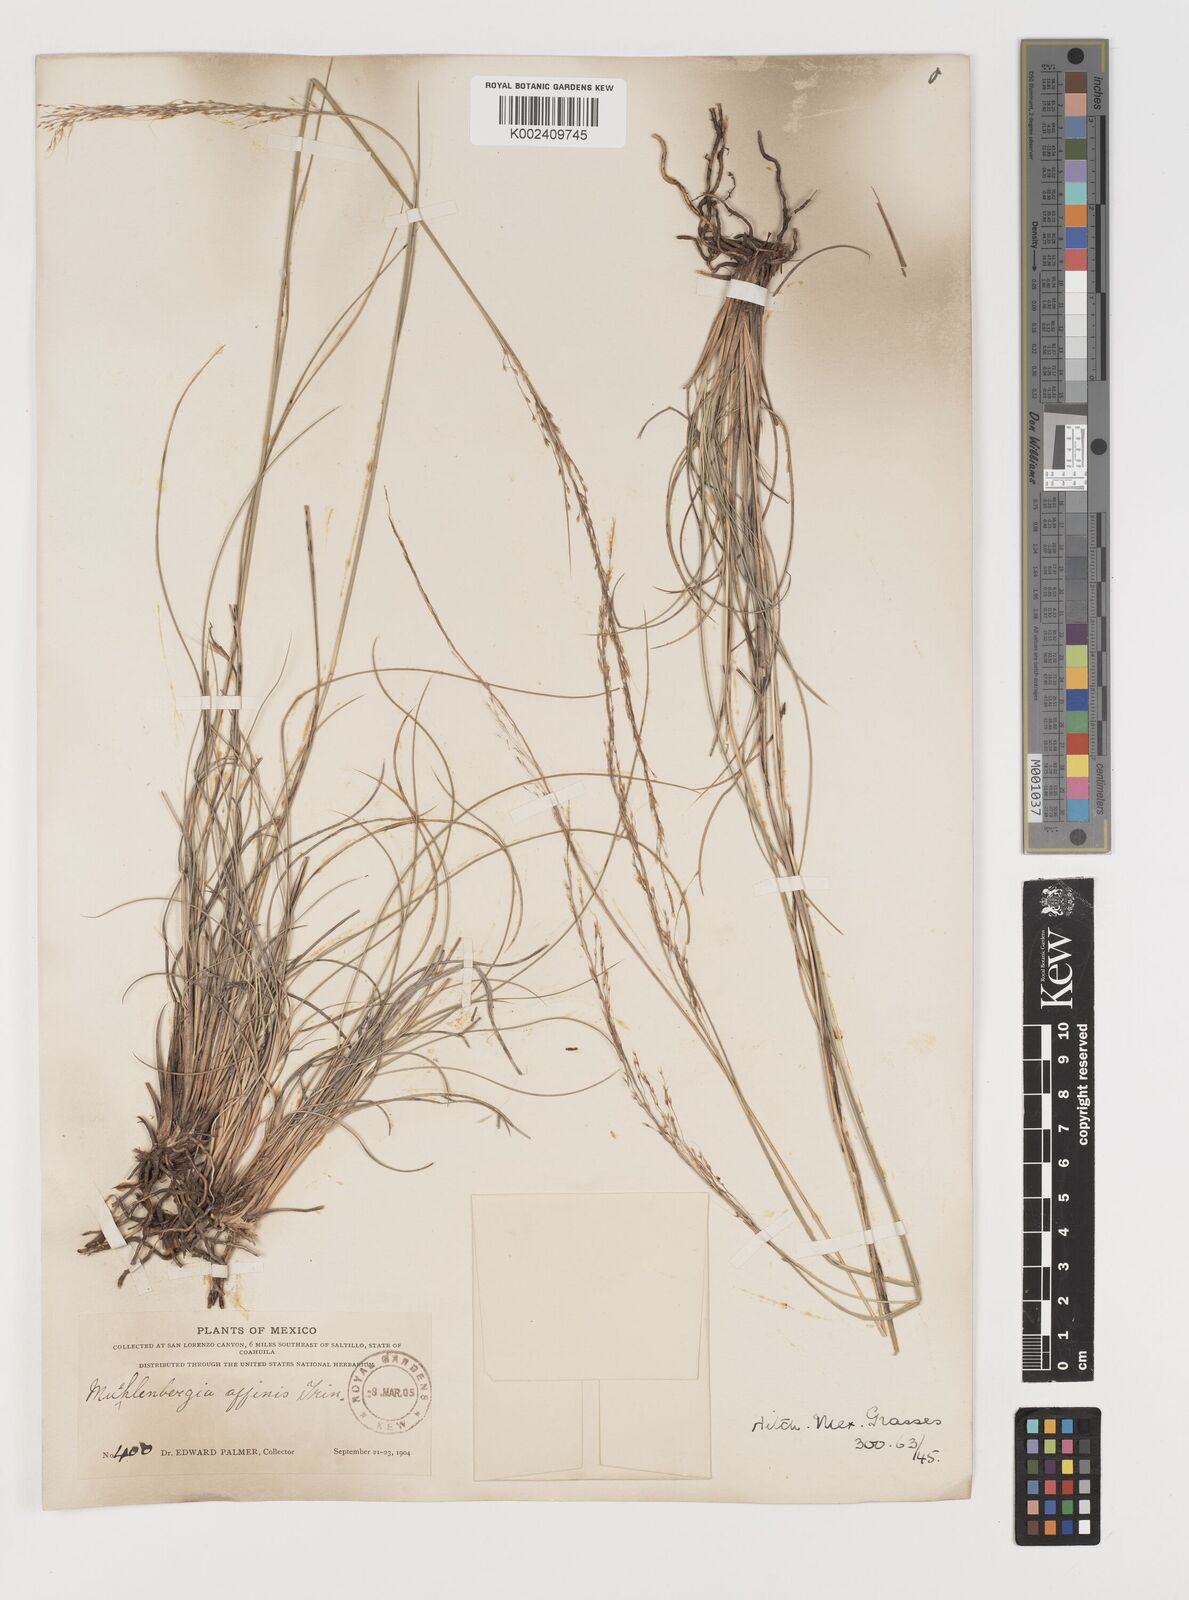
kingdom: Plantae
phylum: Tracheophyta
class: Liliopsida
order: Poales
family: Poaceae
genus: Muhlenbergia
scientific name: Muhlenbergia rigida
